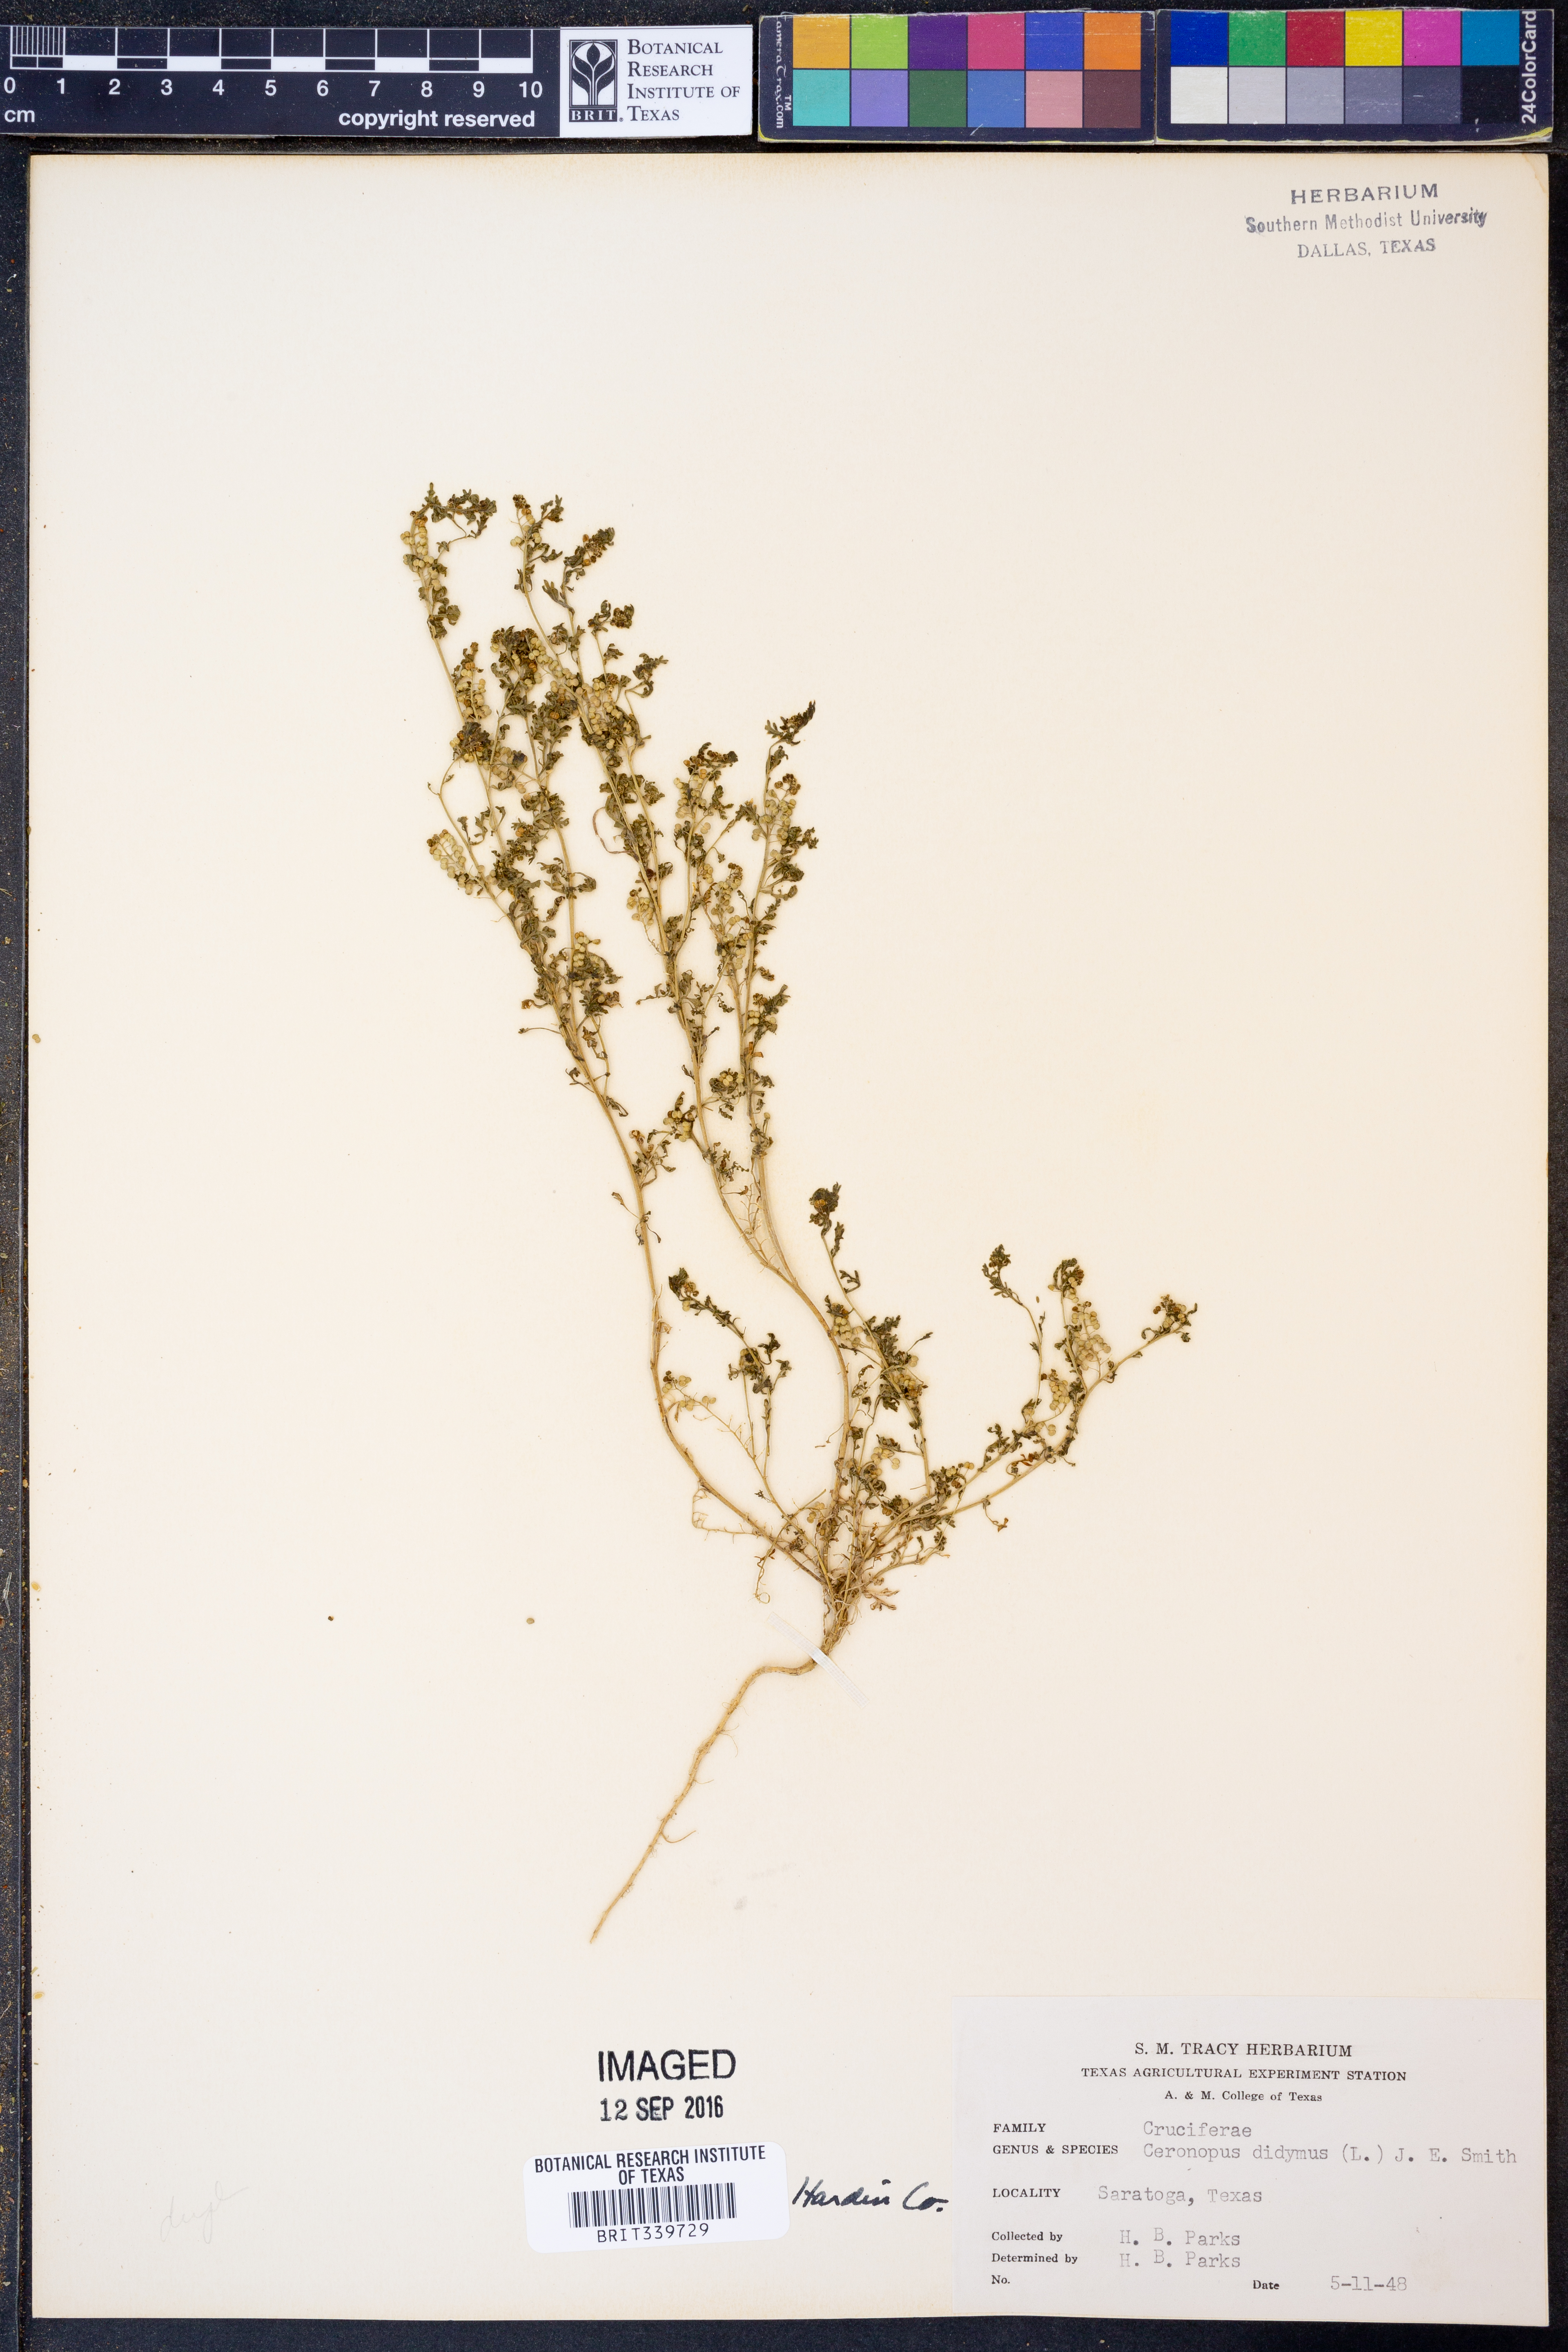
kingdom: Plantae
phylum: Tracheophyta
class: Magnoliopsida
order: Brassicales
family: Brassicaceae
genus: Lepidium
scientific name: Lepidium didymum
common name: Lesser swinecress
